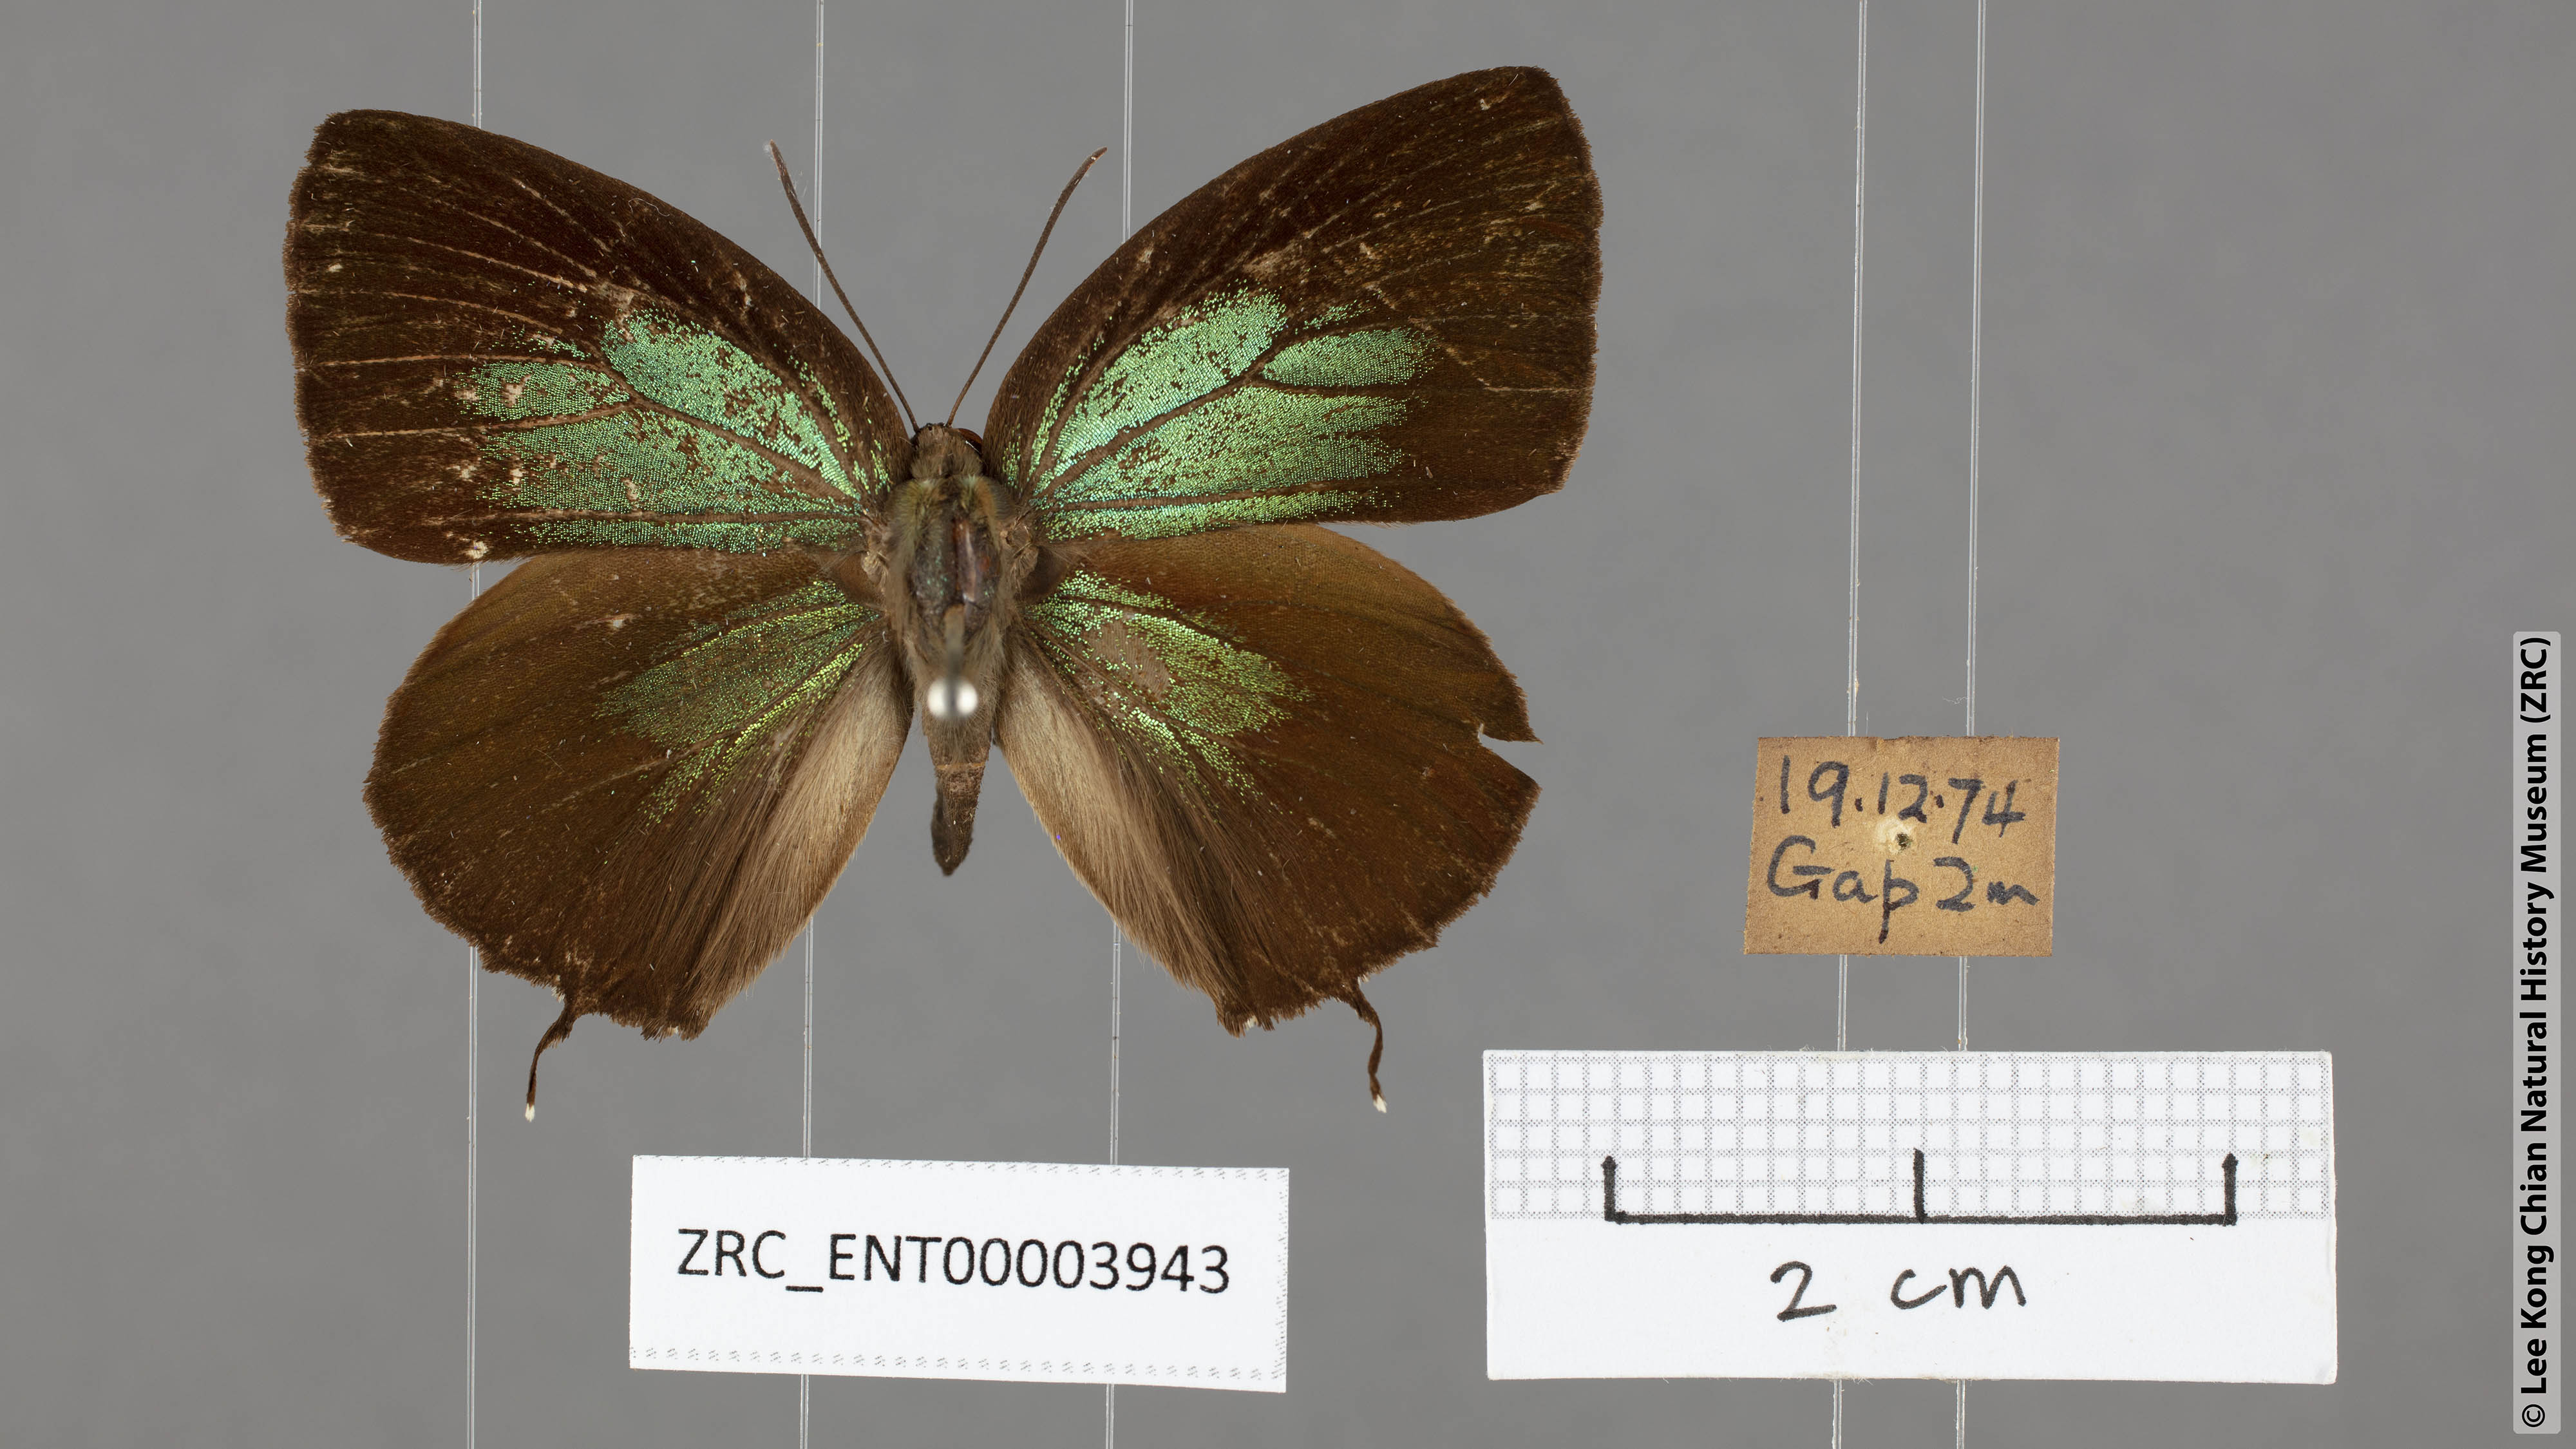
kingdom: Animalia
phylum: Arthropoda
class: Insecta
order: Lepidoptera
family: Lycaenidae
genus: Arhopala
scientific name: Arhopala horsfieldi
